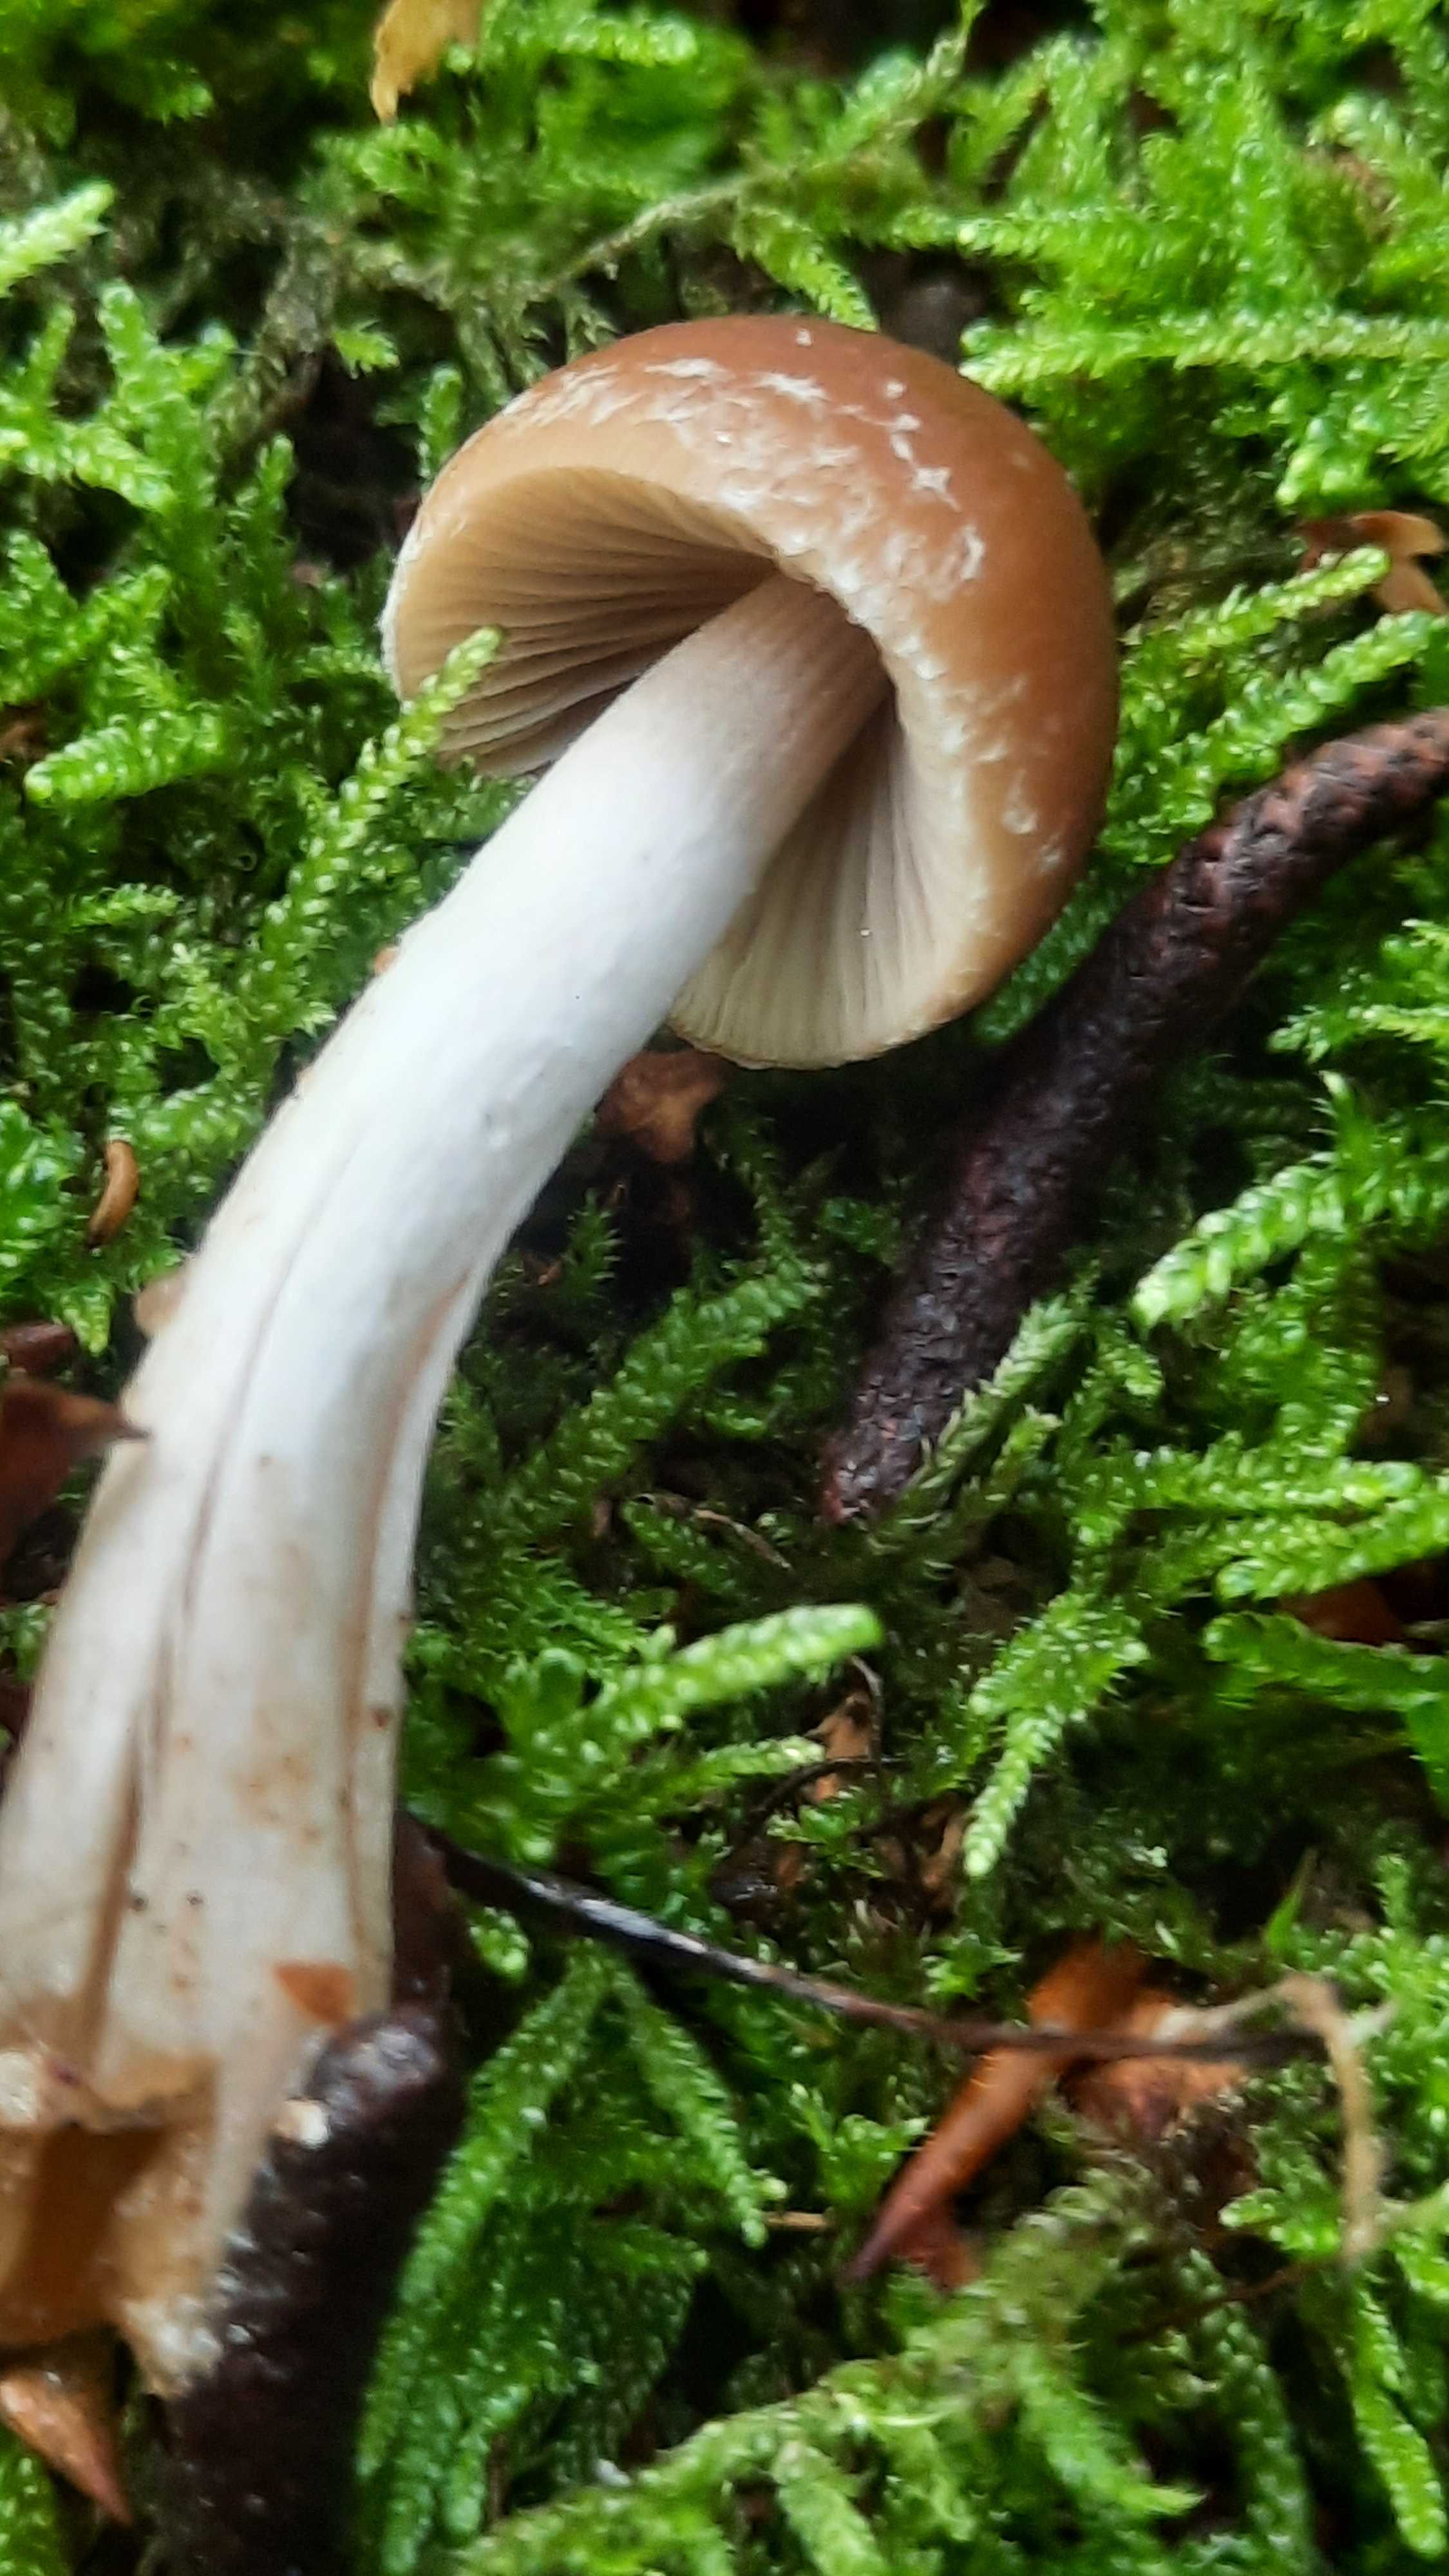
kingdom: Fungi
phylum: Basidiomycota
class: Agaricomycetes
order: Agaricales
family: Psathyrellaceae
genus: Psathyrella
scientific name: Psathyrella
